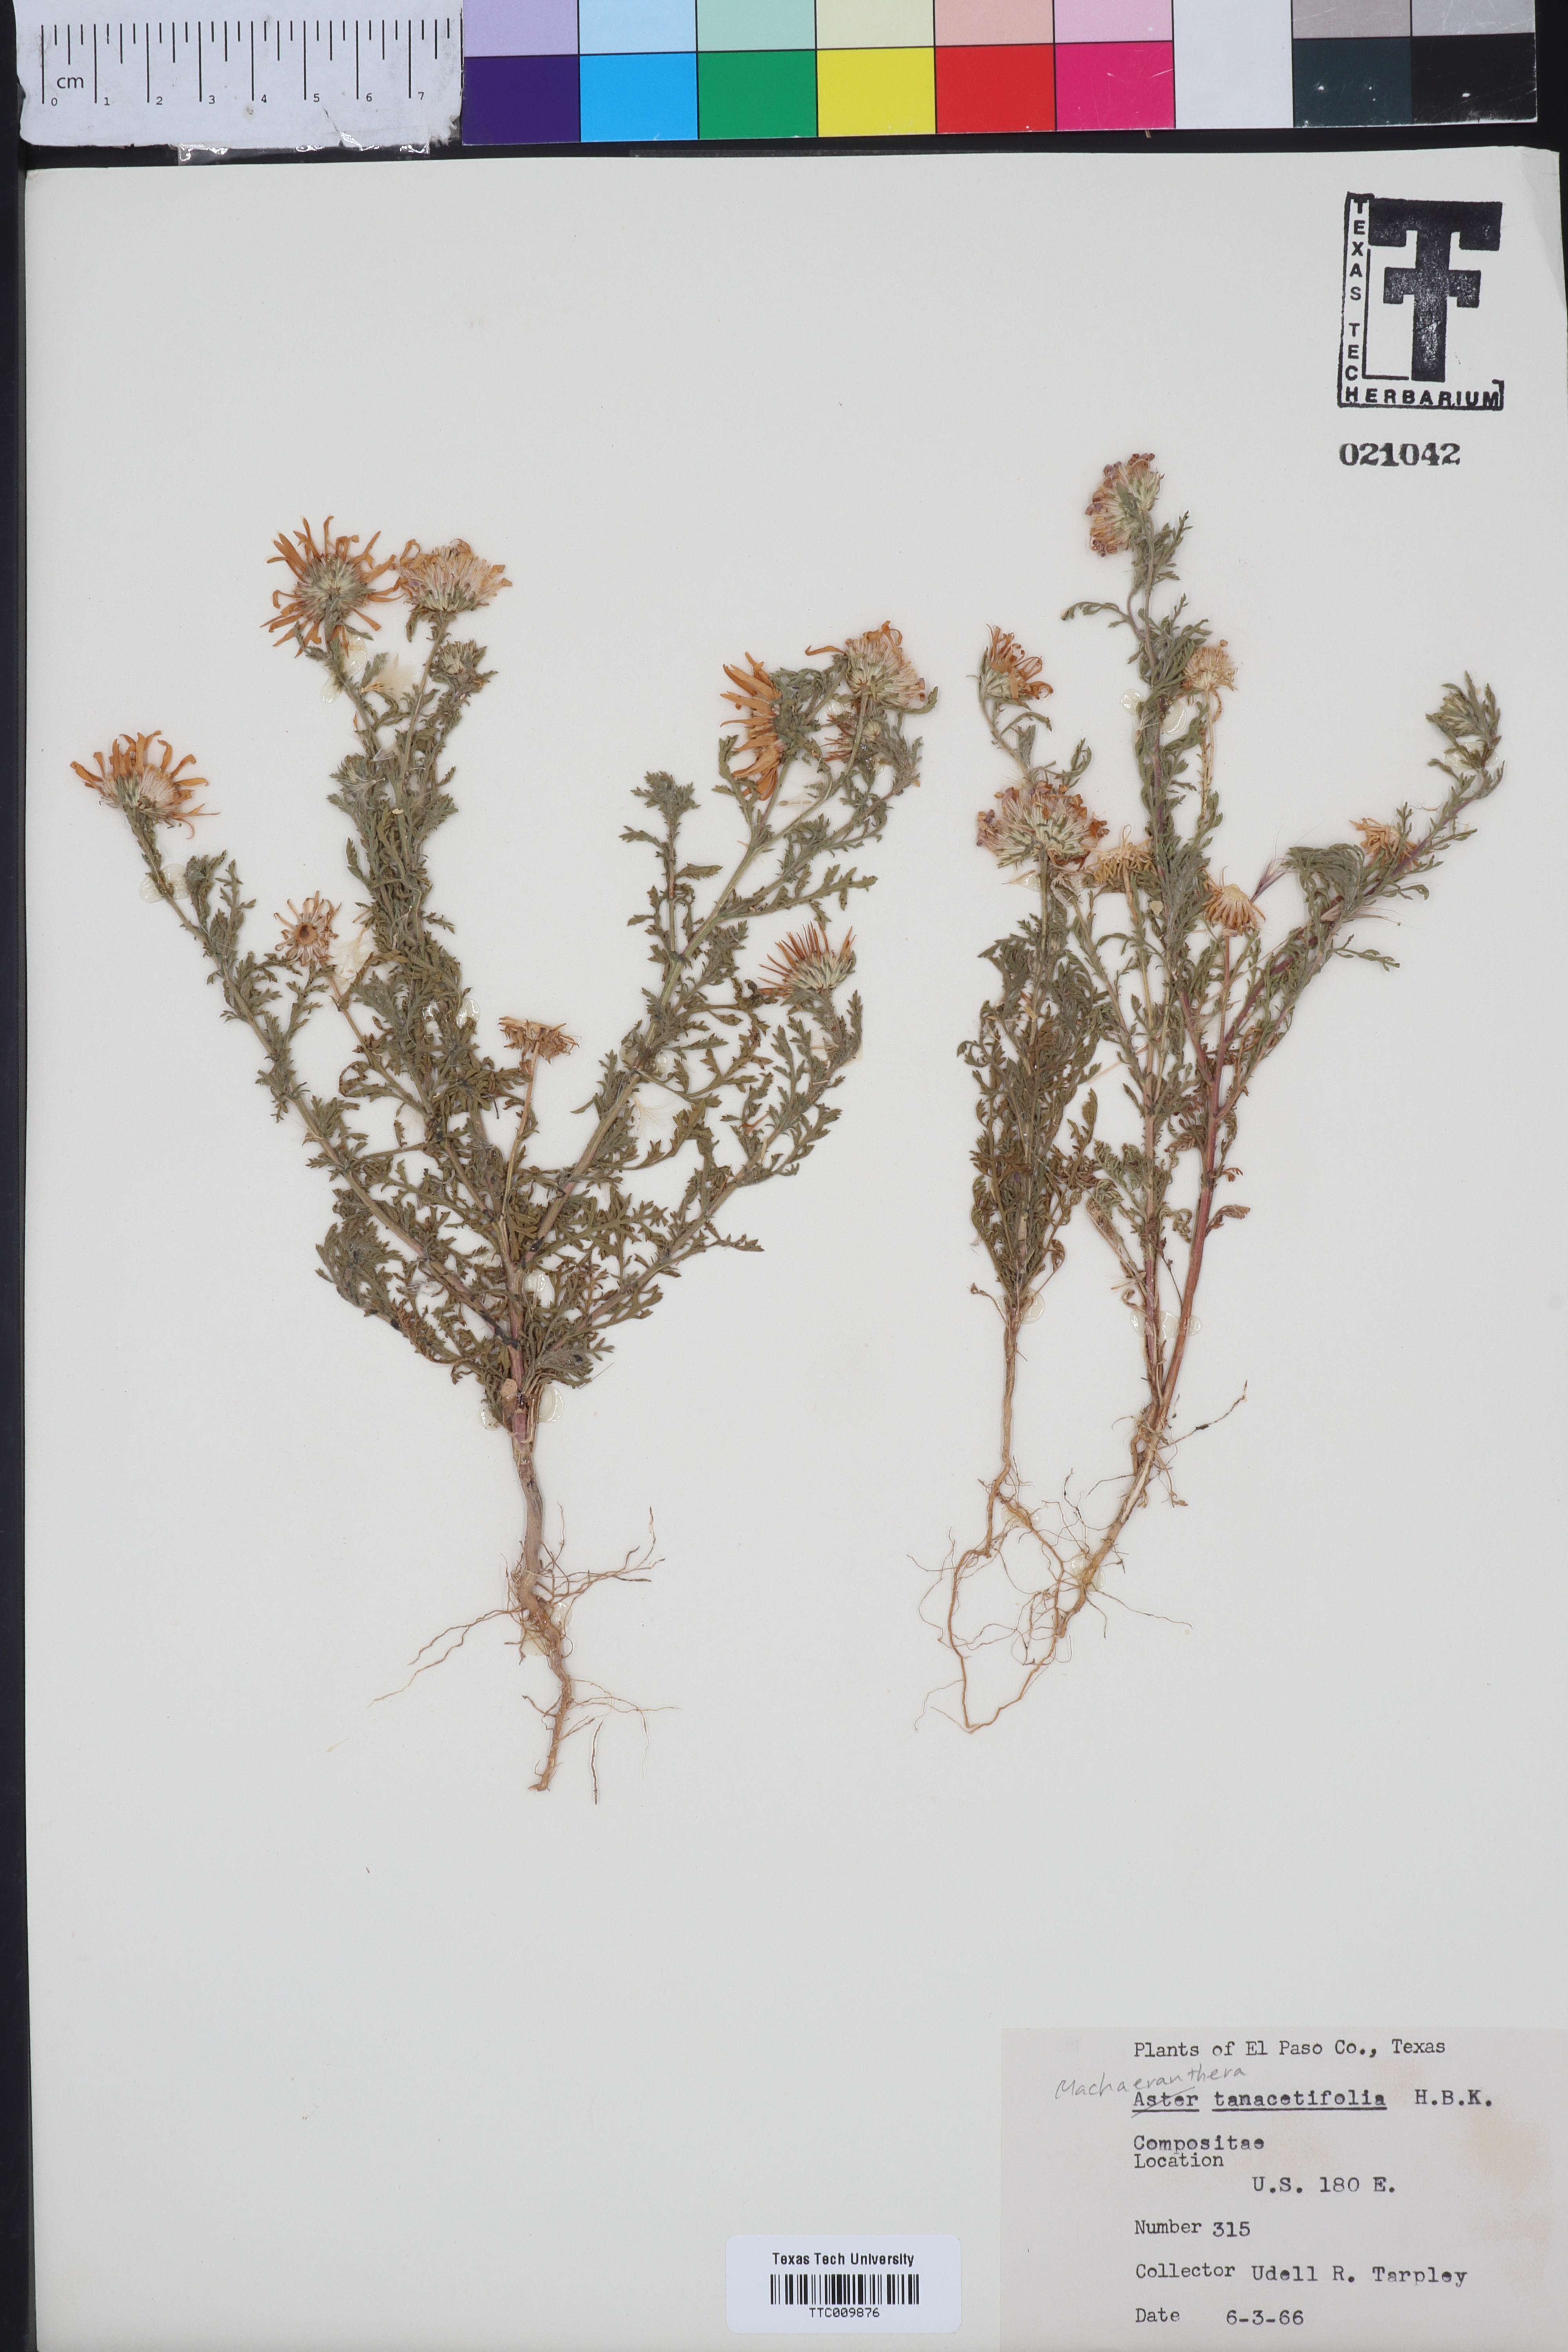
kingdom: Plantae
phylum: Tracheophyta
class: Magnoliopsida
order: Asterales
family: Asteraceae
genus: Machaeranthera
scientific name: Machaeranthera tanacetifolia
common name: Tansy-aster
